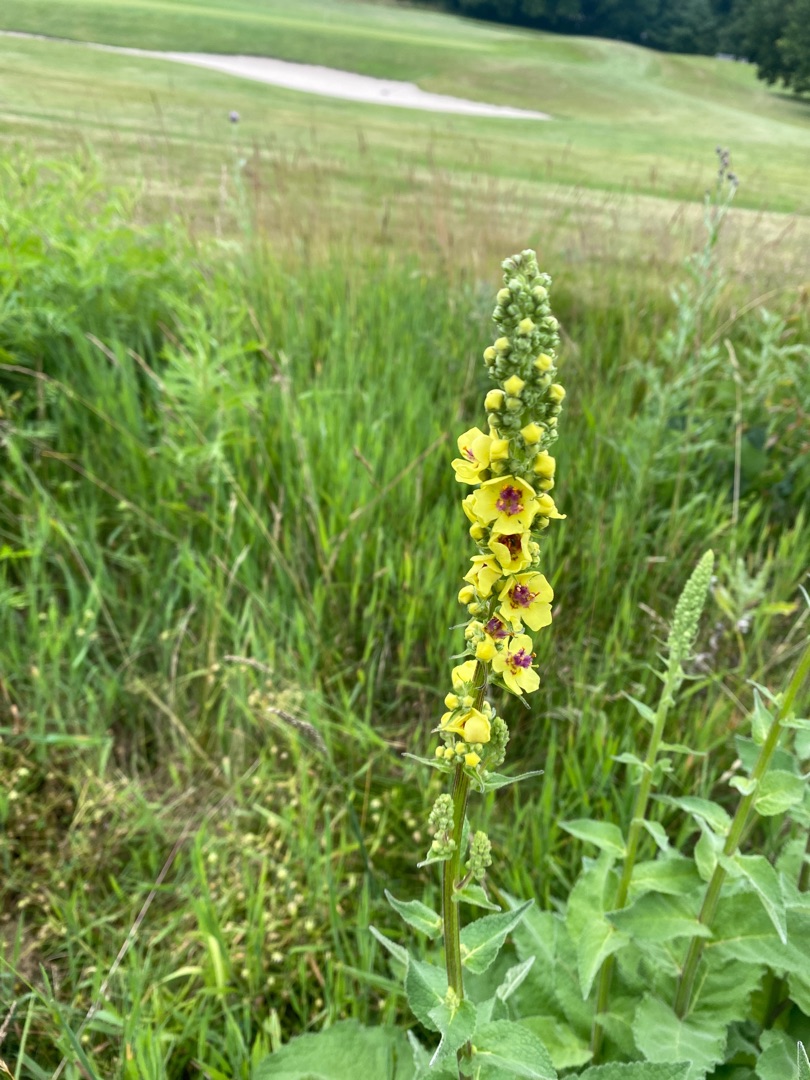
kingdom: Plantae
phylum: Tracheophyta
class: Magnoliopsida
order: Lamiales
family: Scrophulariaceae
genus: Verbascum
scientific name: Verbascum nigrum
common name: Mørk kongelys
